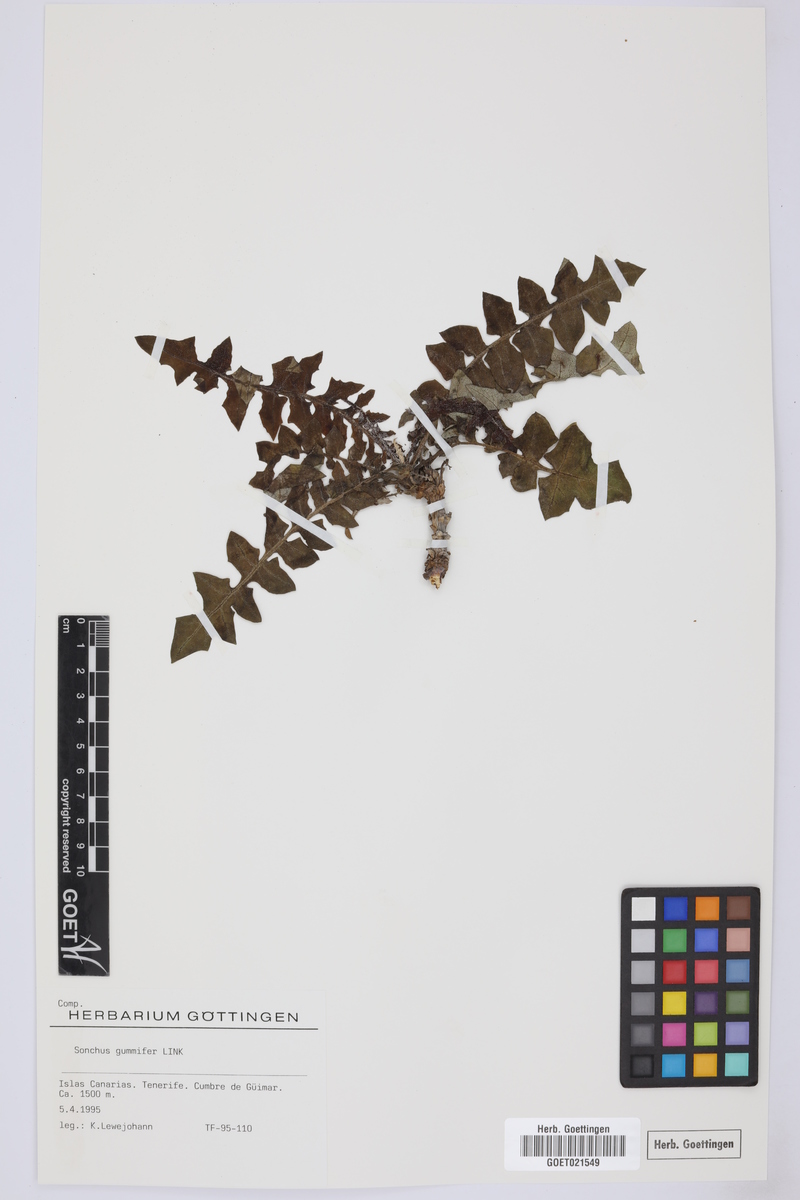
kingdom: Plantae
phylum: Tracheophyta
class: Magnoliopsida
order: Asterales
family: Asteraceae
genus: Sonchus
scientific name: Sonchus gummifer
